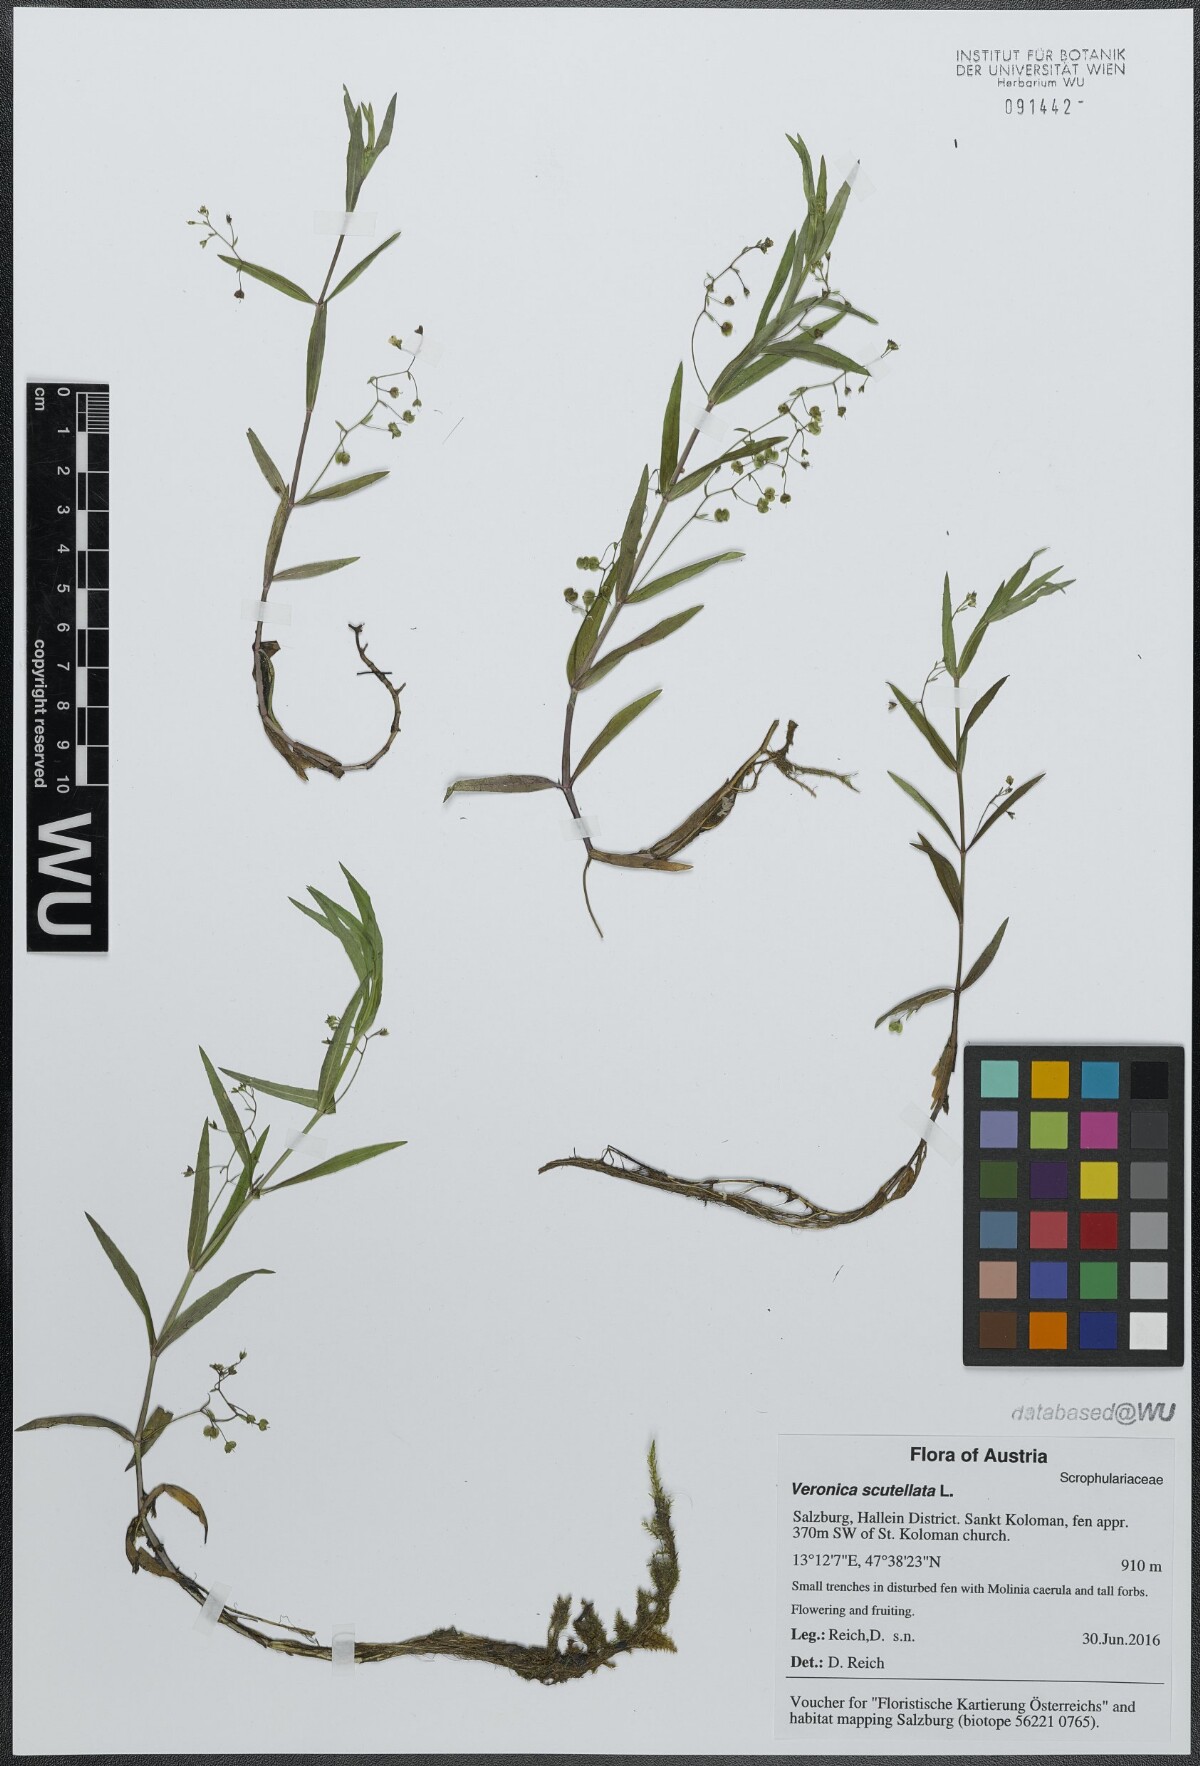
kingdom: Plantae
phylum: Tracheophyta
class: Magnoliopsida
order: Lamiales
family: Plantaginaceae
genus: Veronica
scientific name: Veronica scutellata
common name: Marsh speedwell
